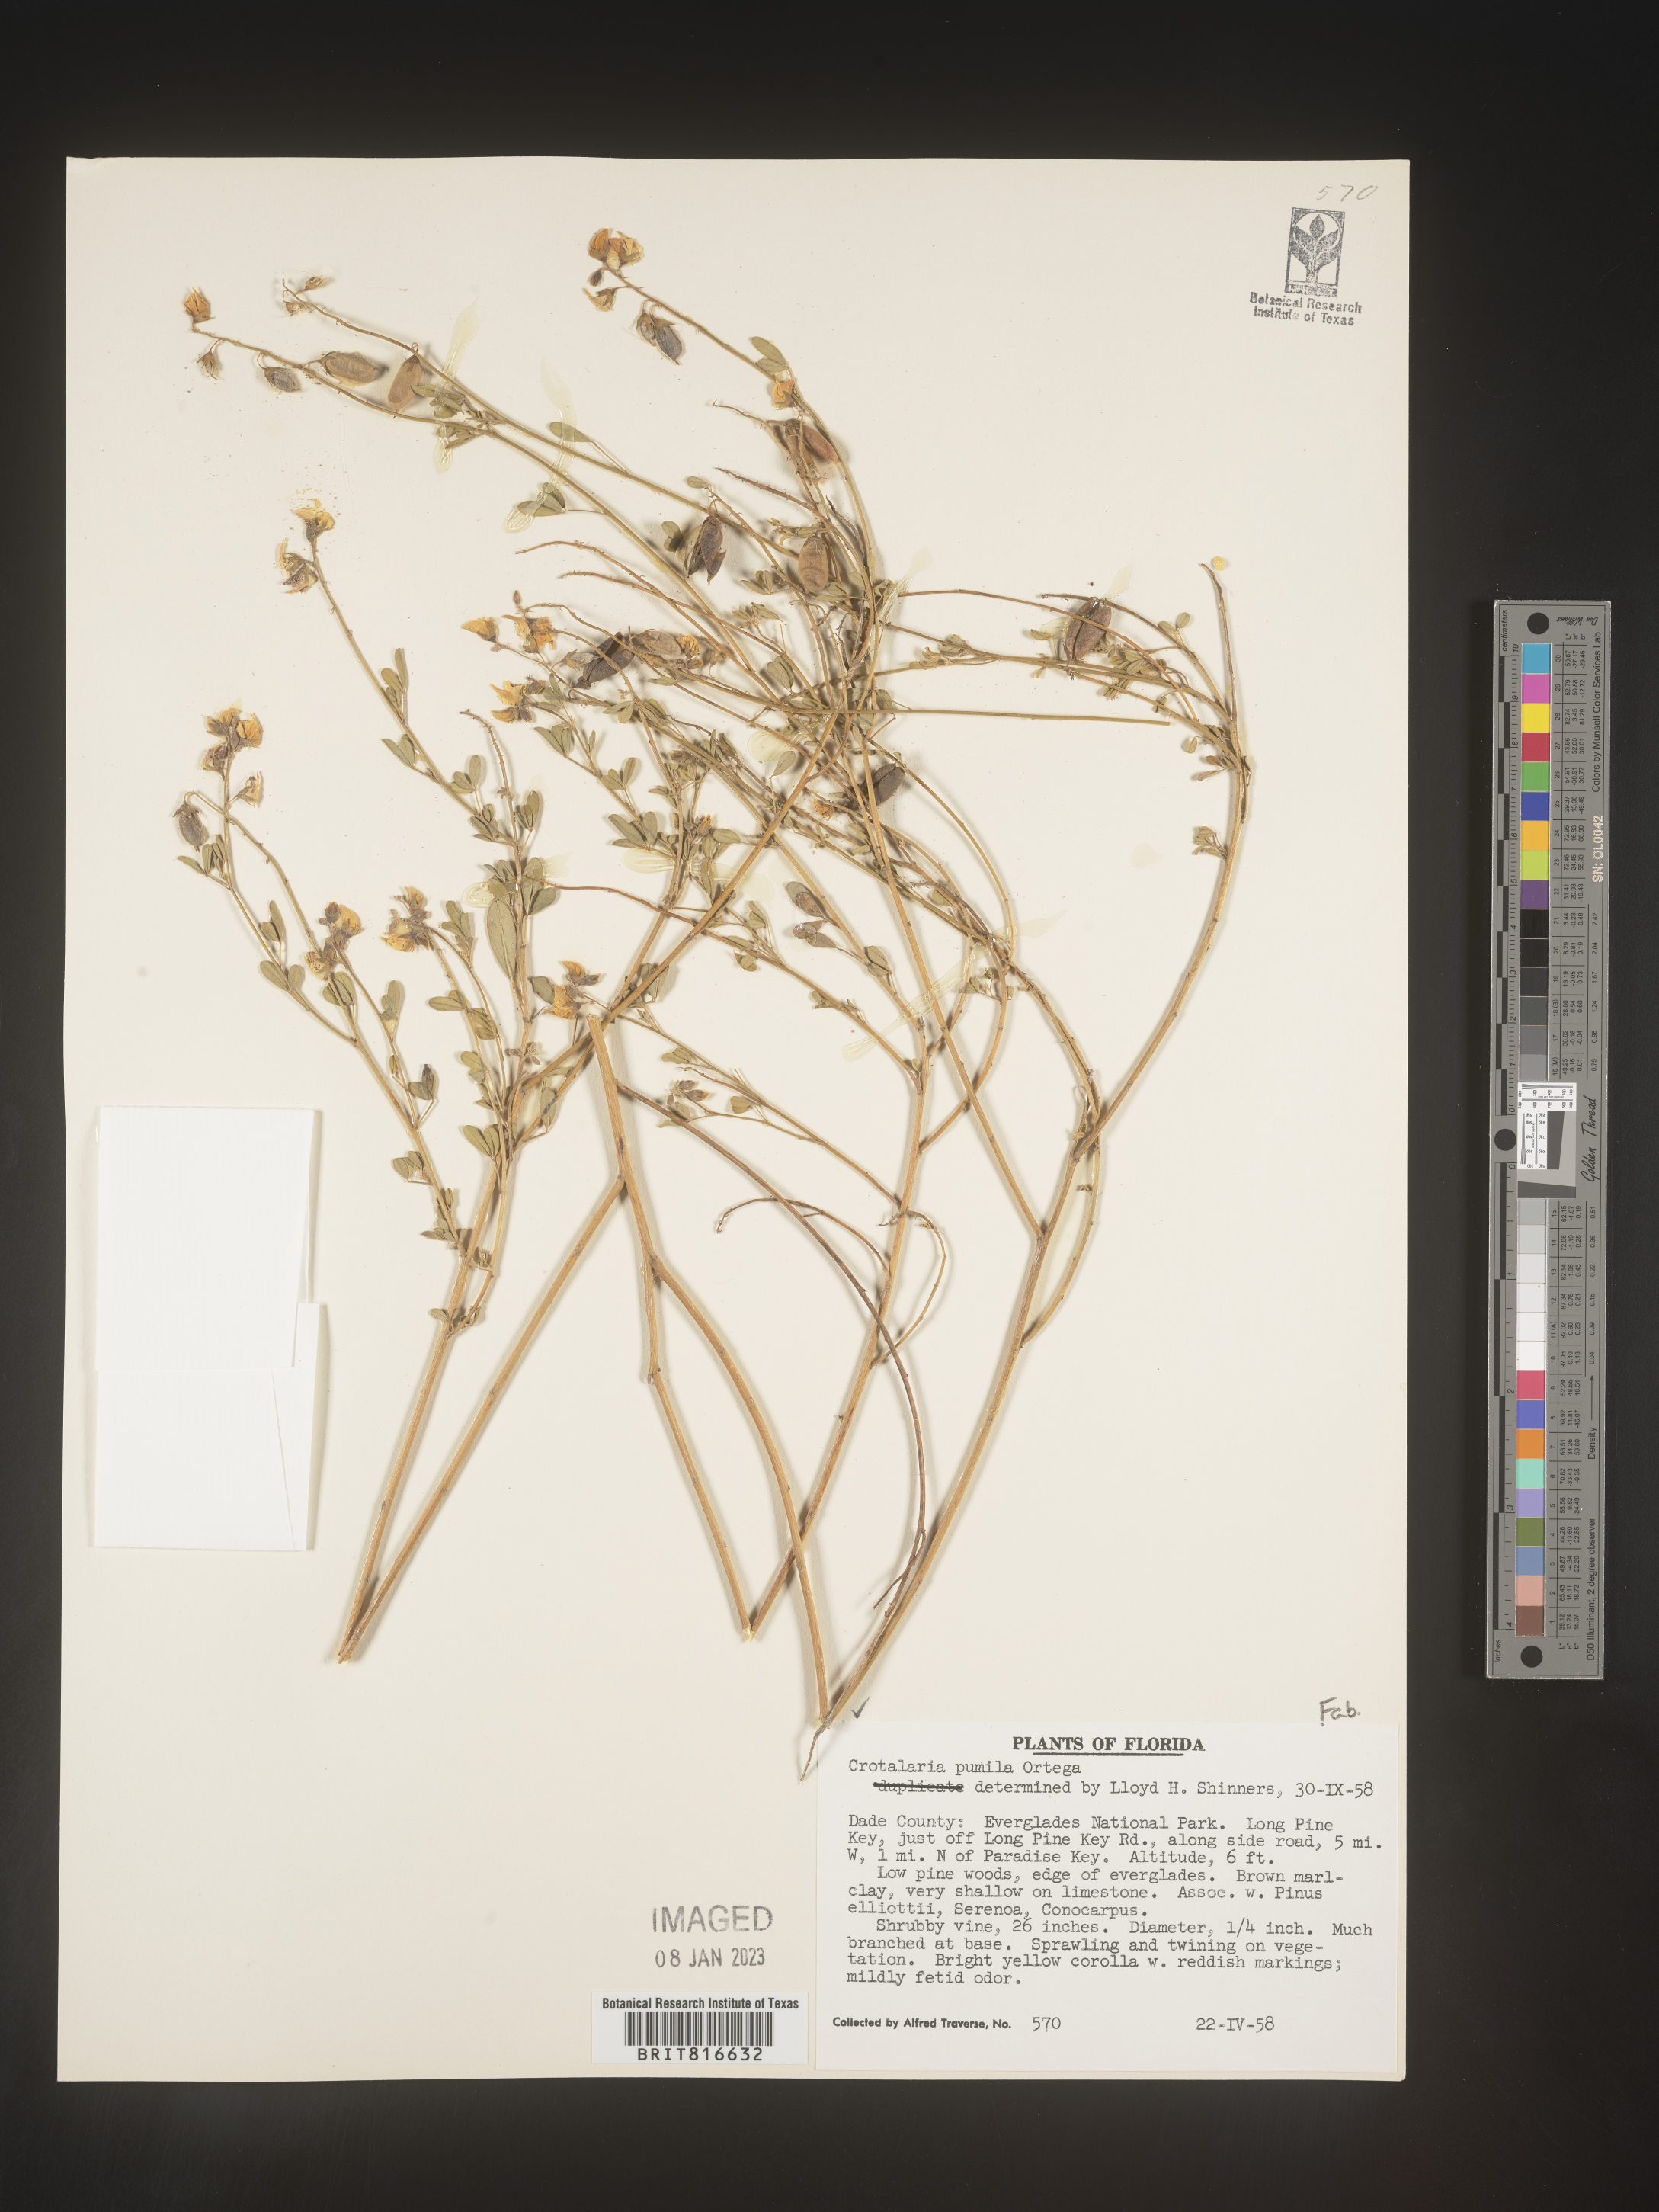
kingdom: Plantae
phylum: Tracheophyta
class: Magnoliopsida
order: Fabales
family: Fabaceae
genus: Crotalaria
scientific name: Crotalaria pumila
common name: Low rattlebox
